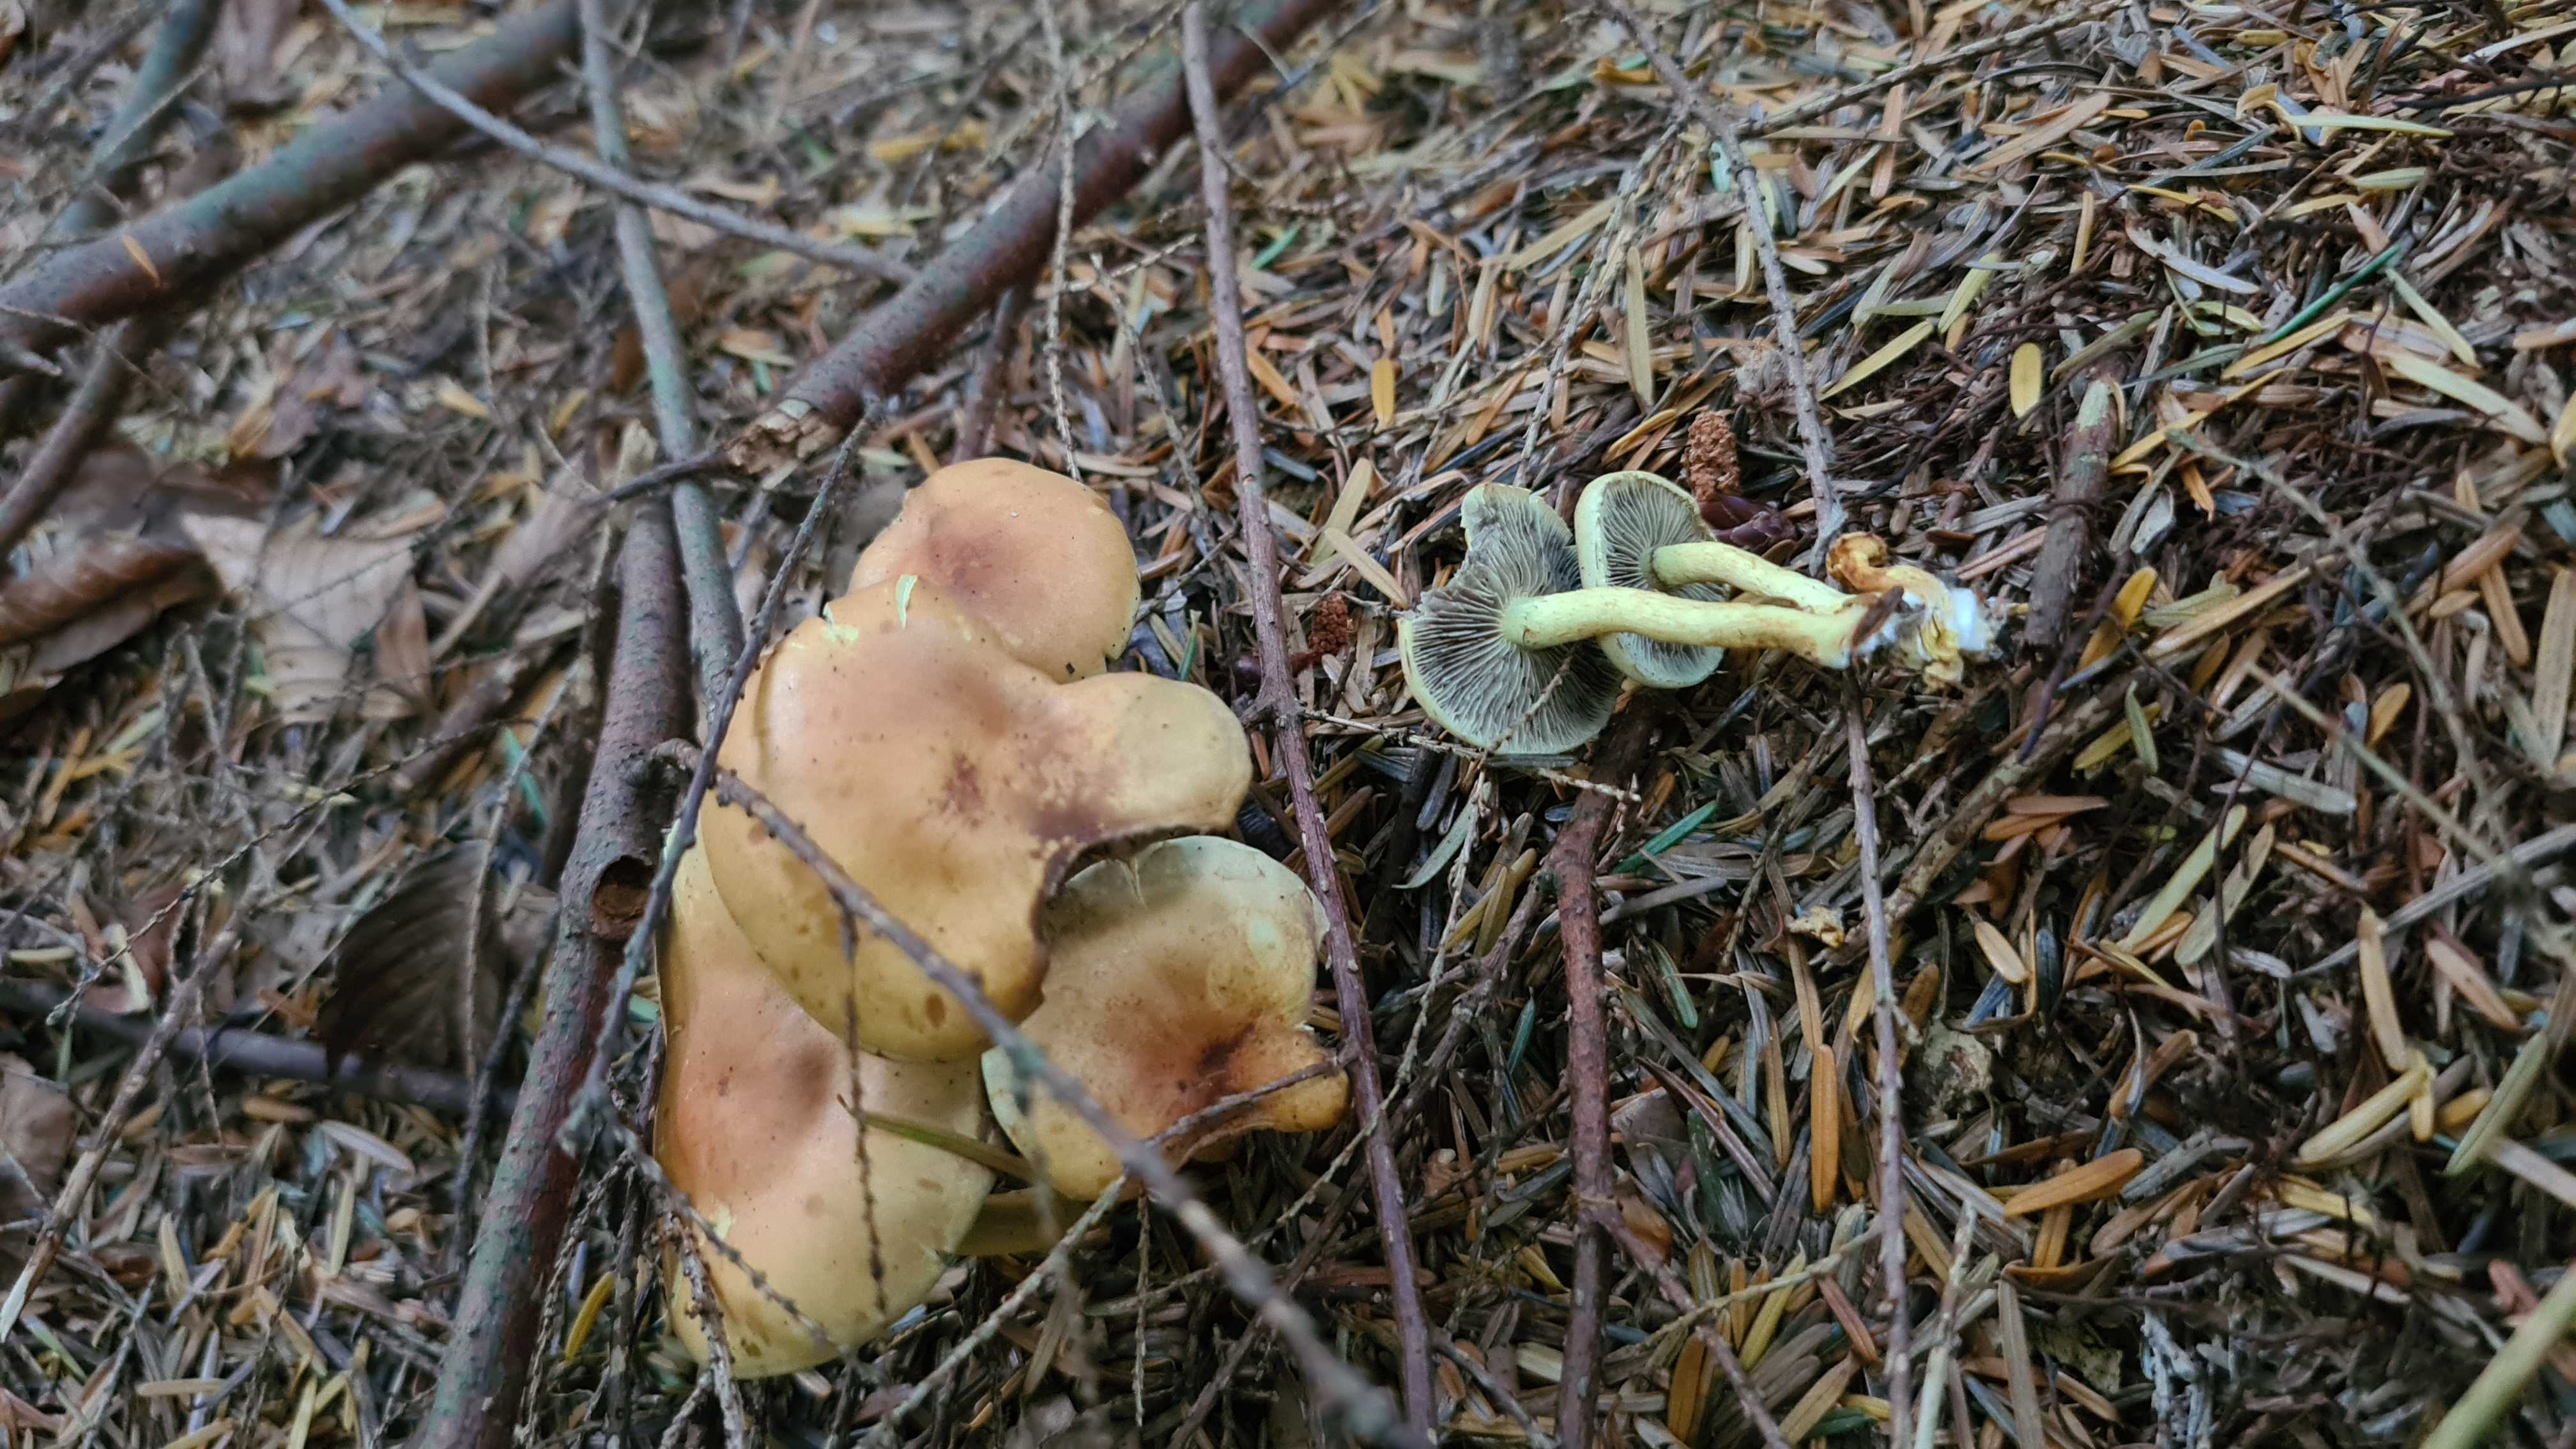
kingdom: Fungi
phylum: Basidiomycota
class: Agaricomycetes
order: Agaricales
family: Strophariaceae
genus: Hypholoma
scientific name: Hypholoma fasciculare
